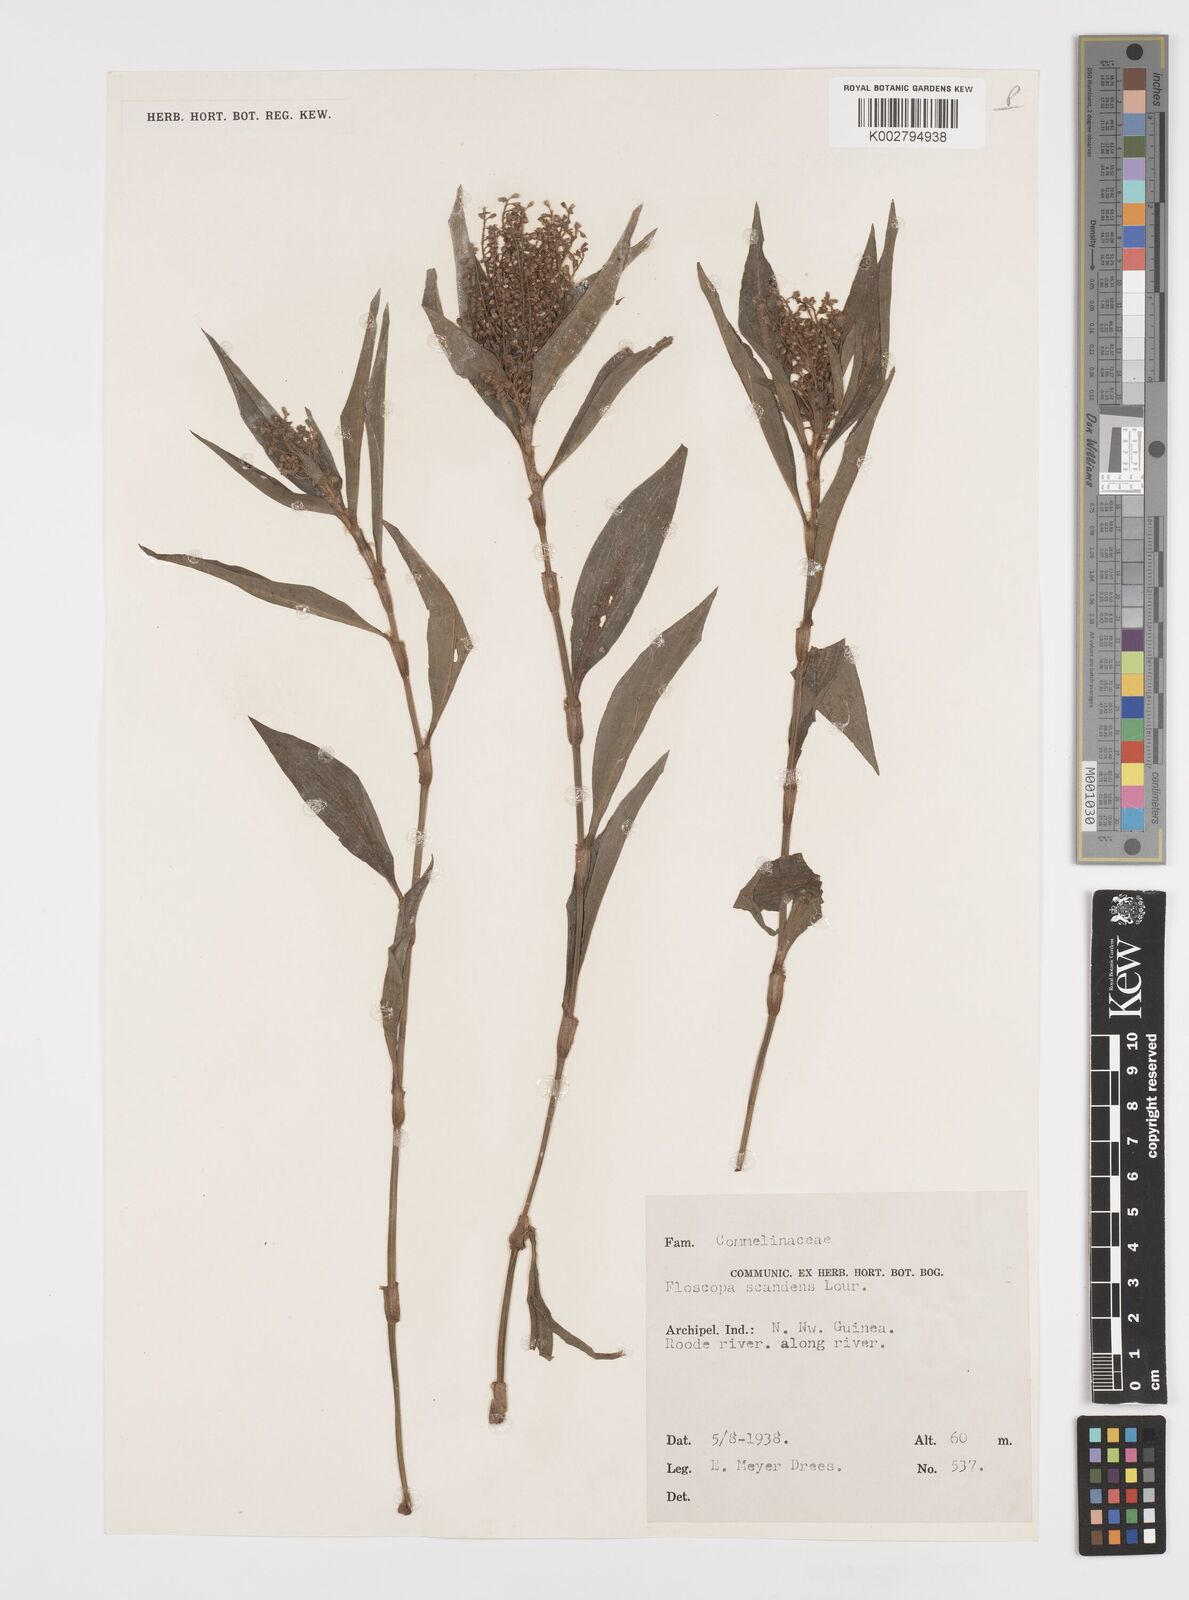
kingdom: Plantae
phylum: Tracheophyta
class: Liliopsida
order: Commelinales
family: Commelinaceae
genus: Floscopa
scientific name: Floscopa scandens
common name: Climbing flower cup
